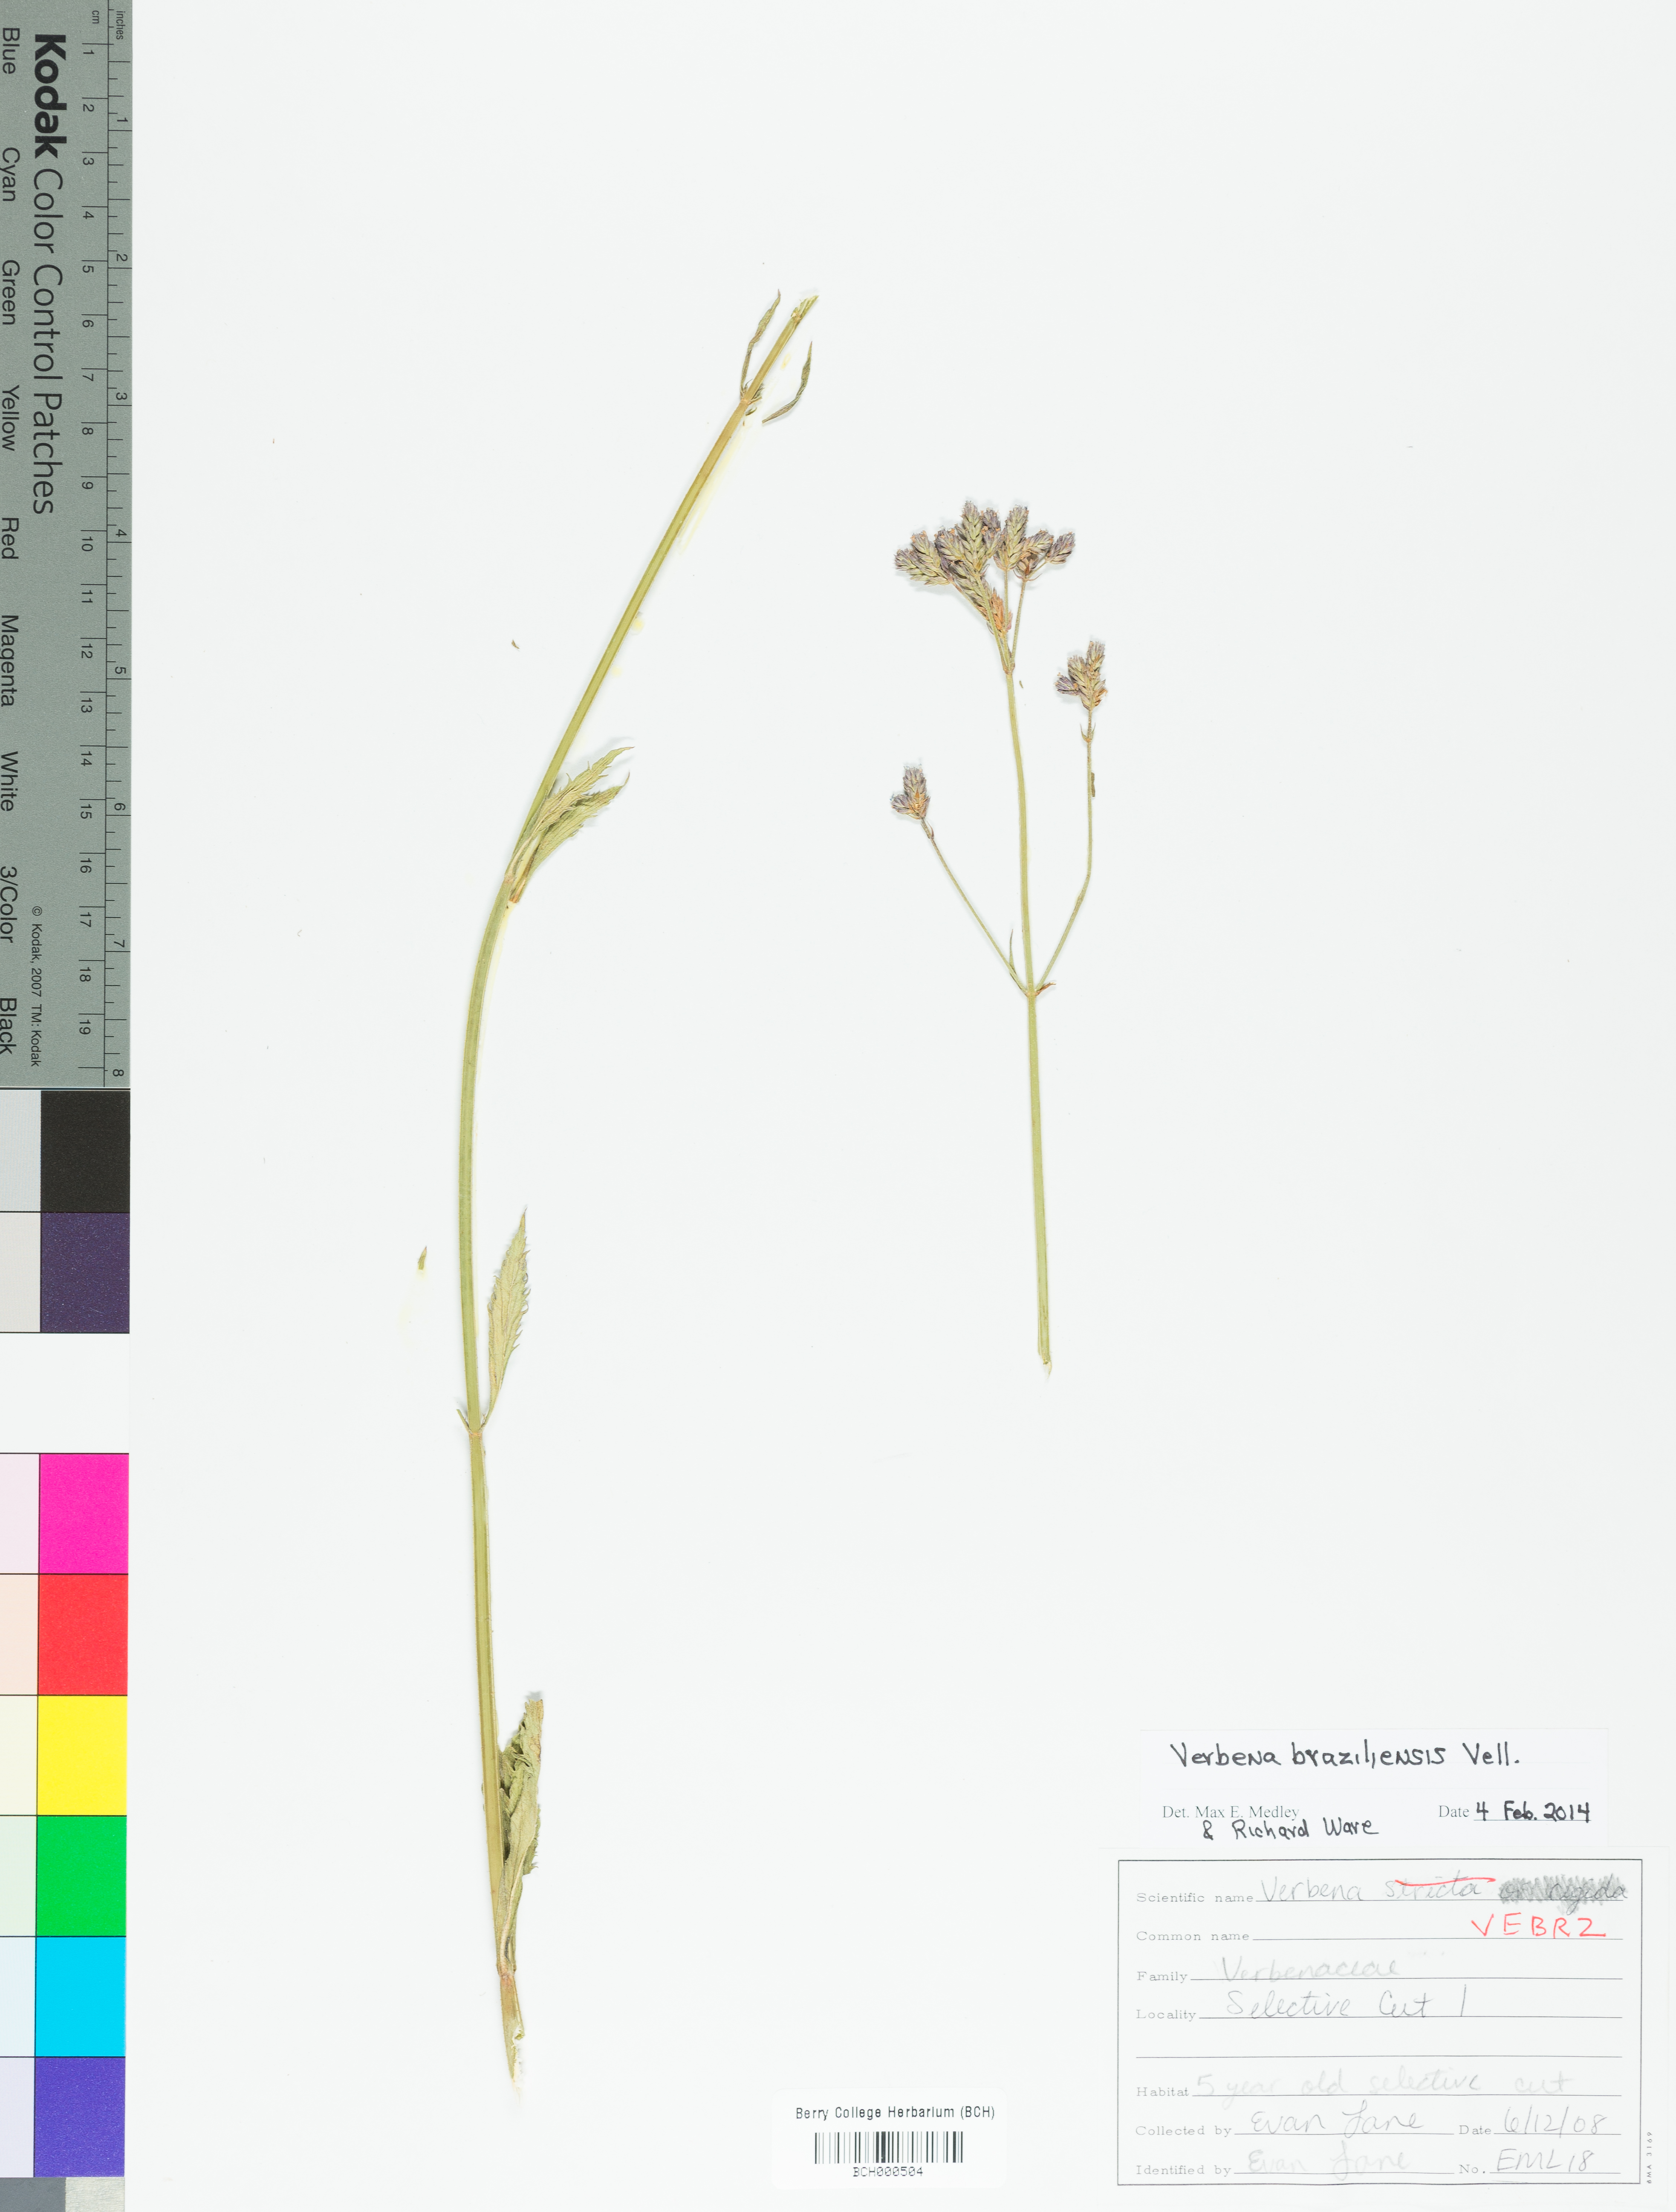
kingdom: Plantae
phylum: Tracheophyta
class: Magnoliopsida
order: Lamiales
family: Verbenaceae
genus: Verbena
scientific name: Verbena brasiliensis
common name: Brazilian vervain
